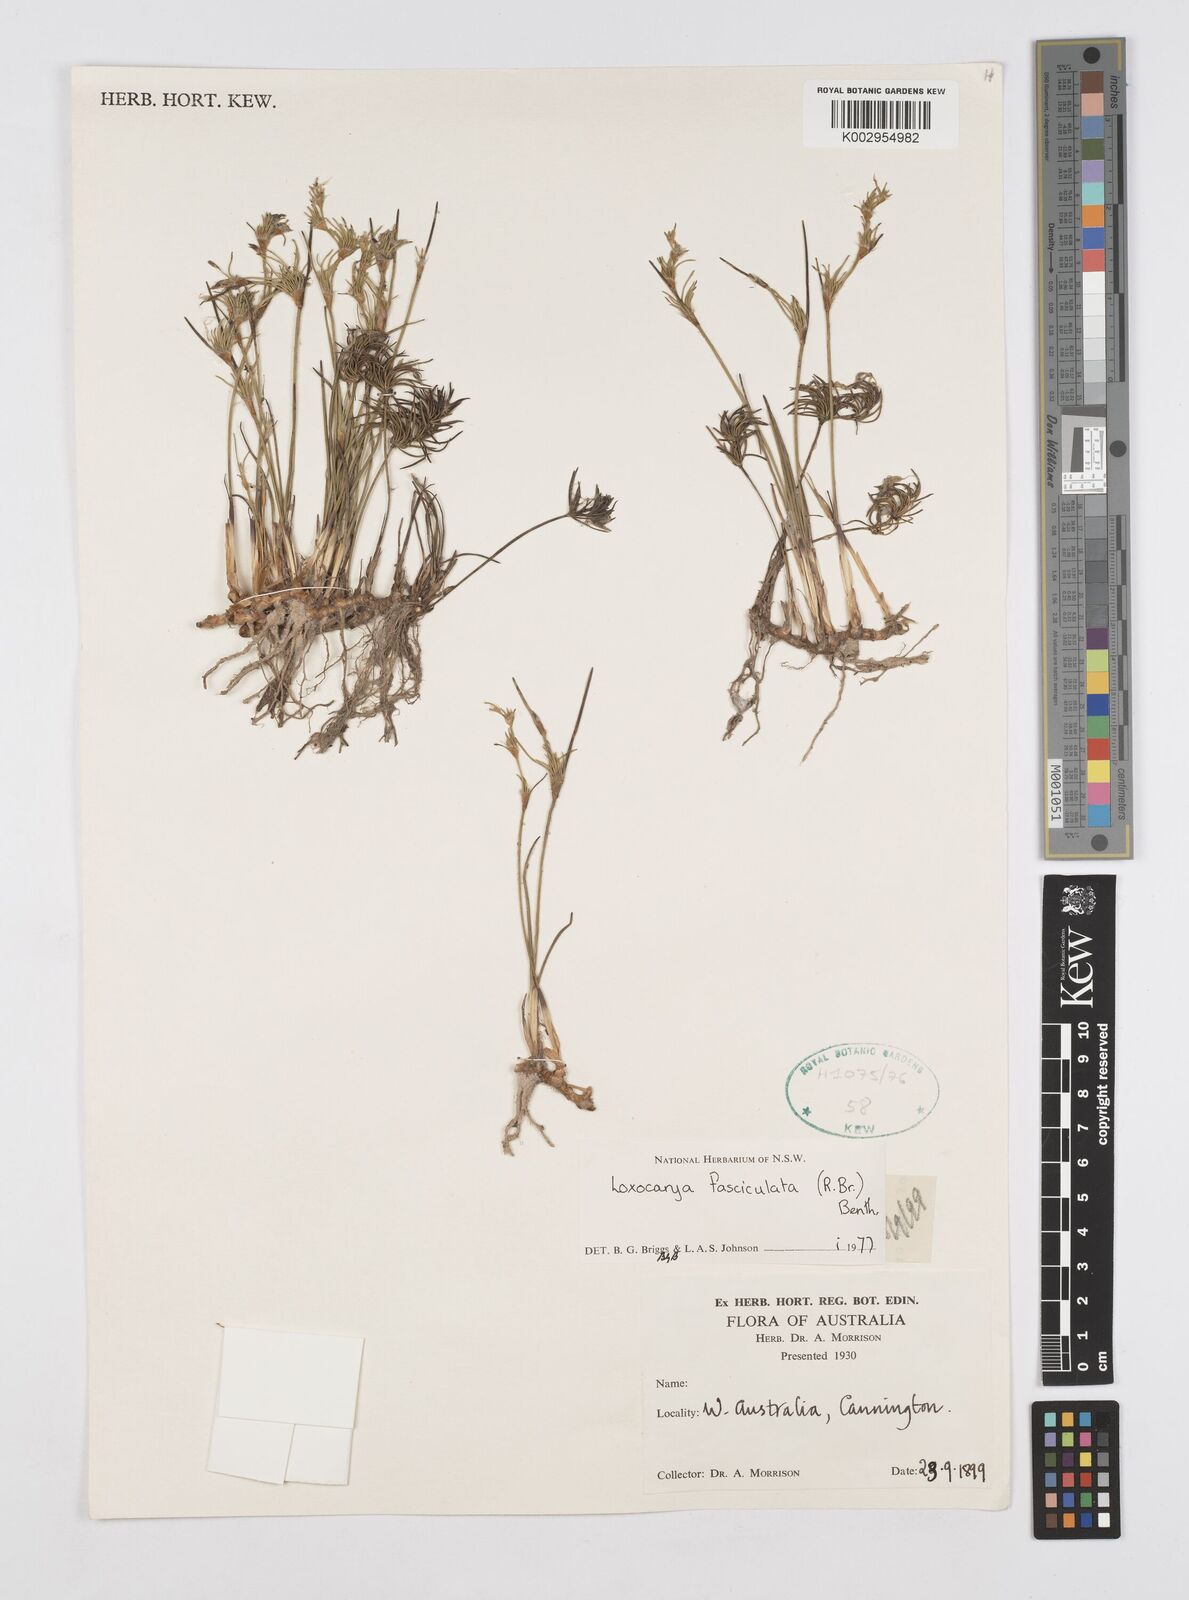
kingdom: Plantae
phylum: Tracheophyta
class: Liliopsida
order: Poales
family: Restionaceae
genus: Desmocladus
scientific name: Desmocladus fasciculatus
